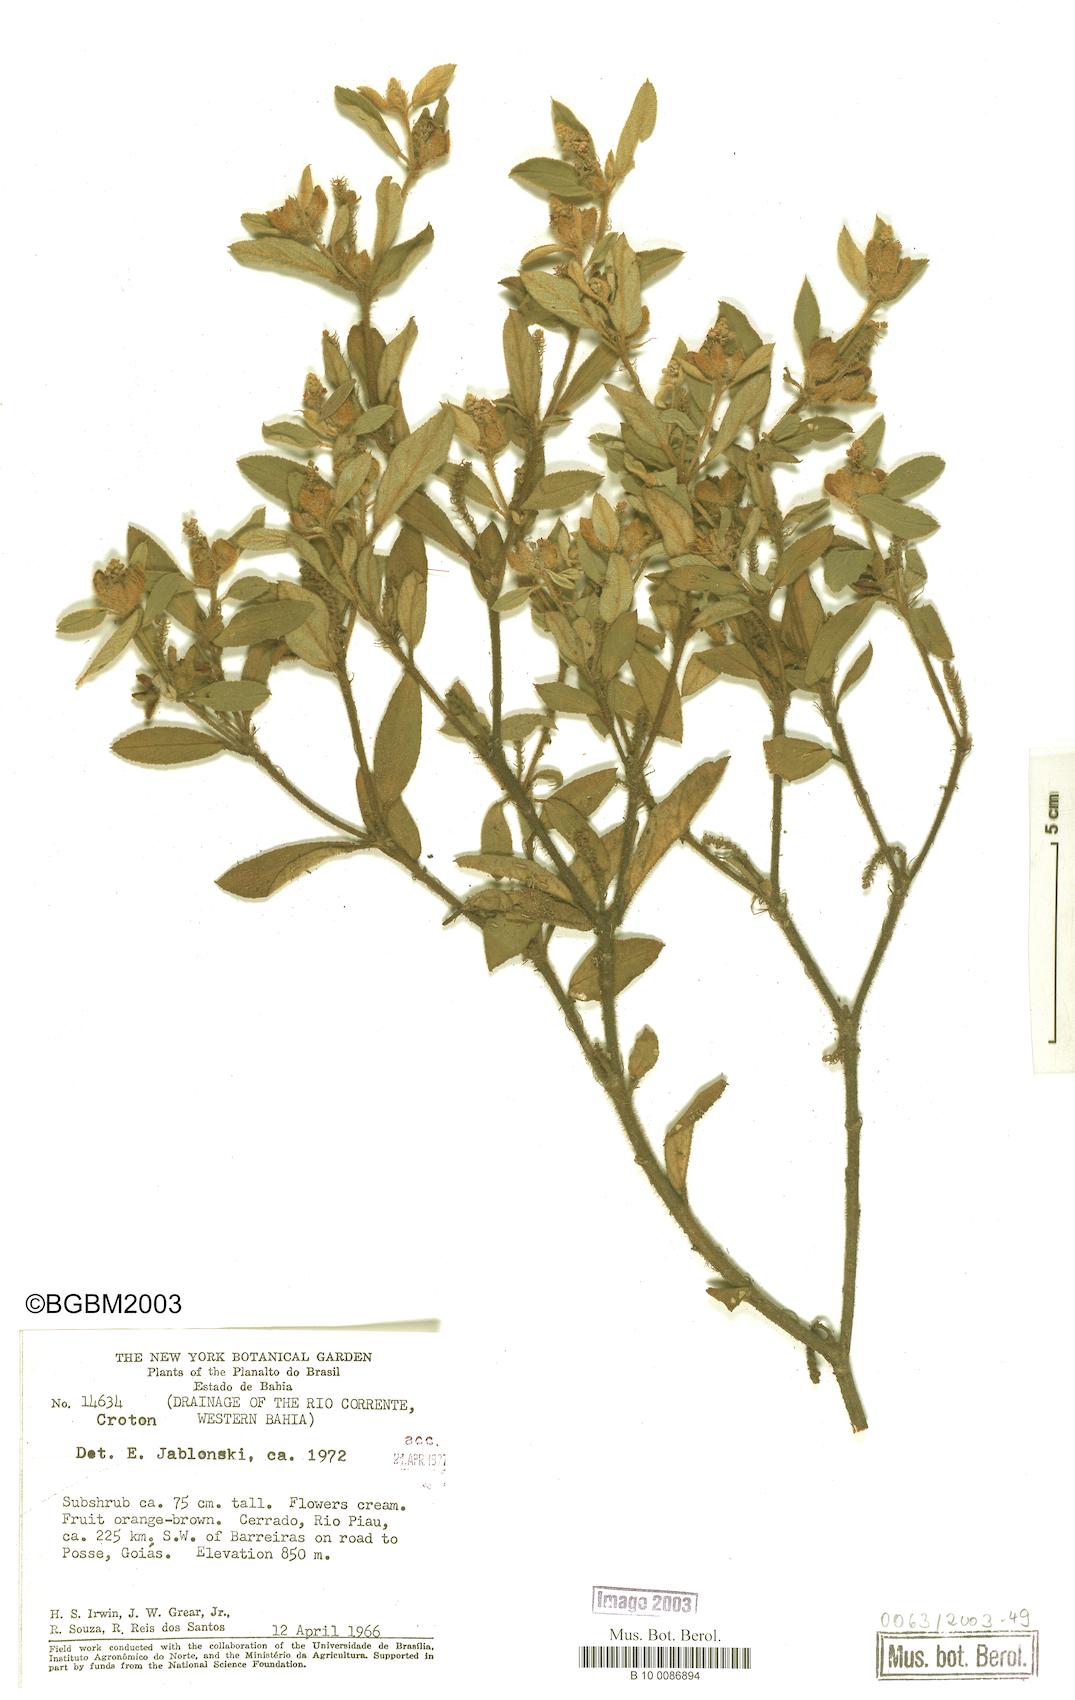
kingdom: Plantae
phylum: Tracheophyta
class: Magnoliopsida
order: Malpighiales
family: Euphorbiaceae
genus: Croton
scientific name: Croton
